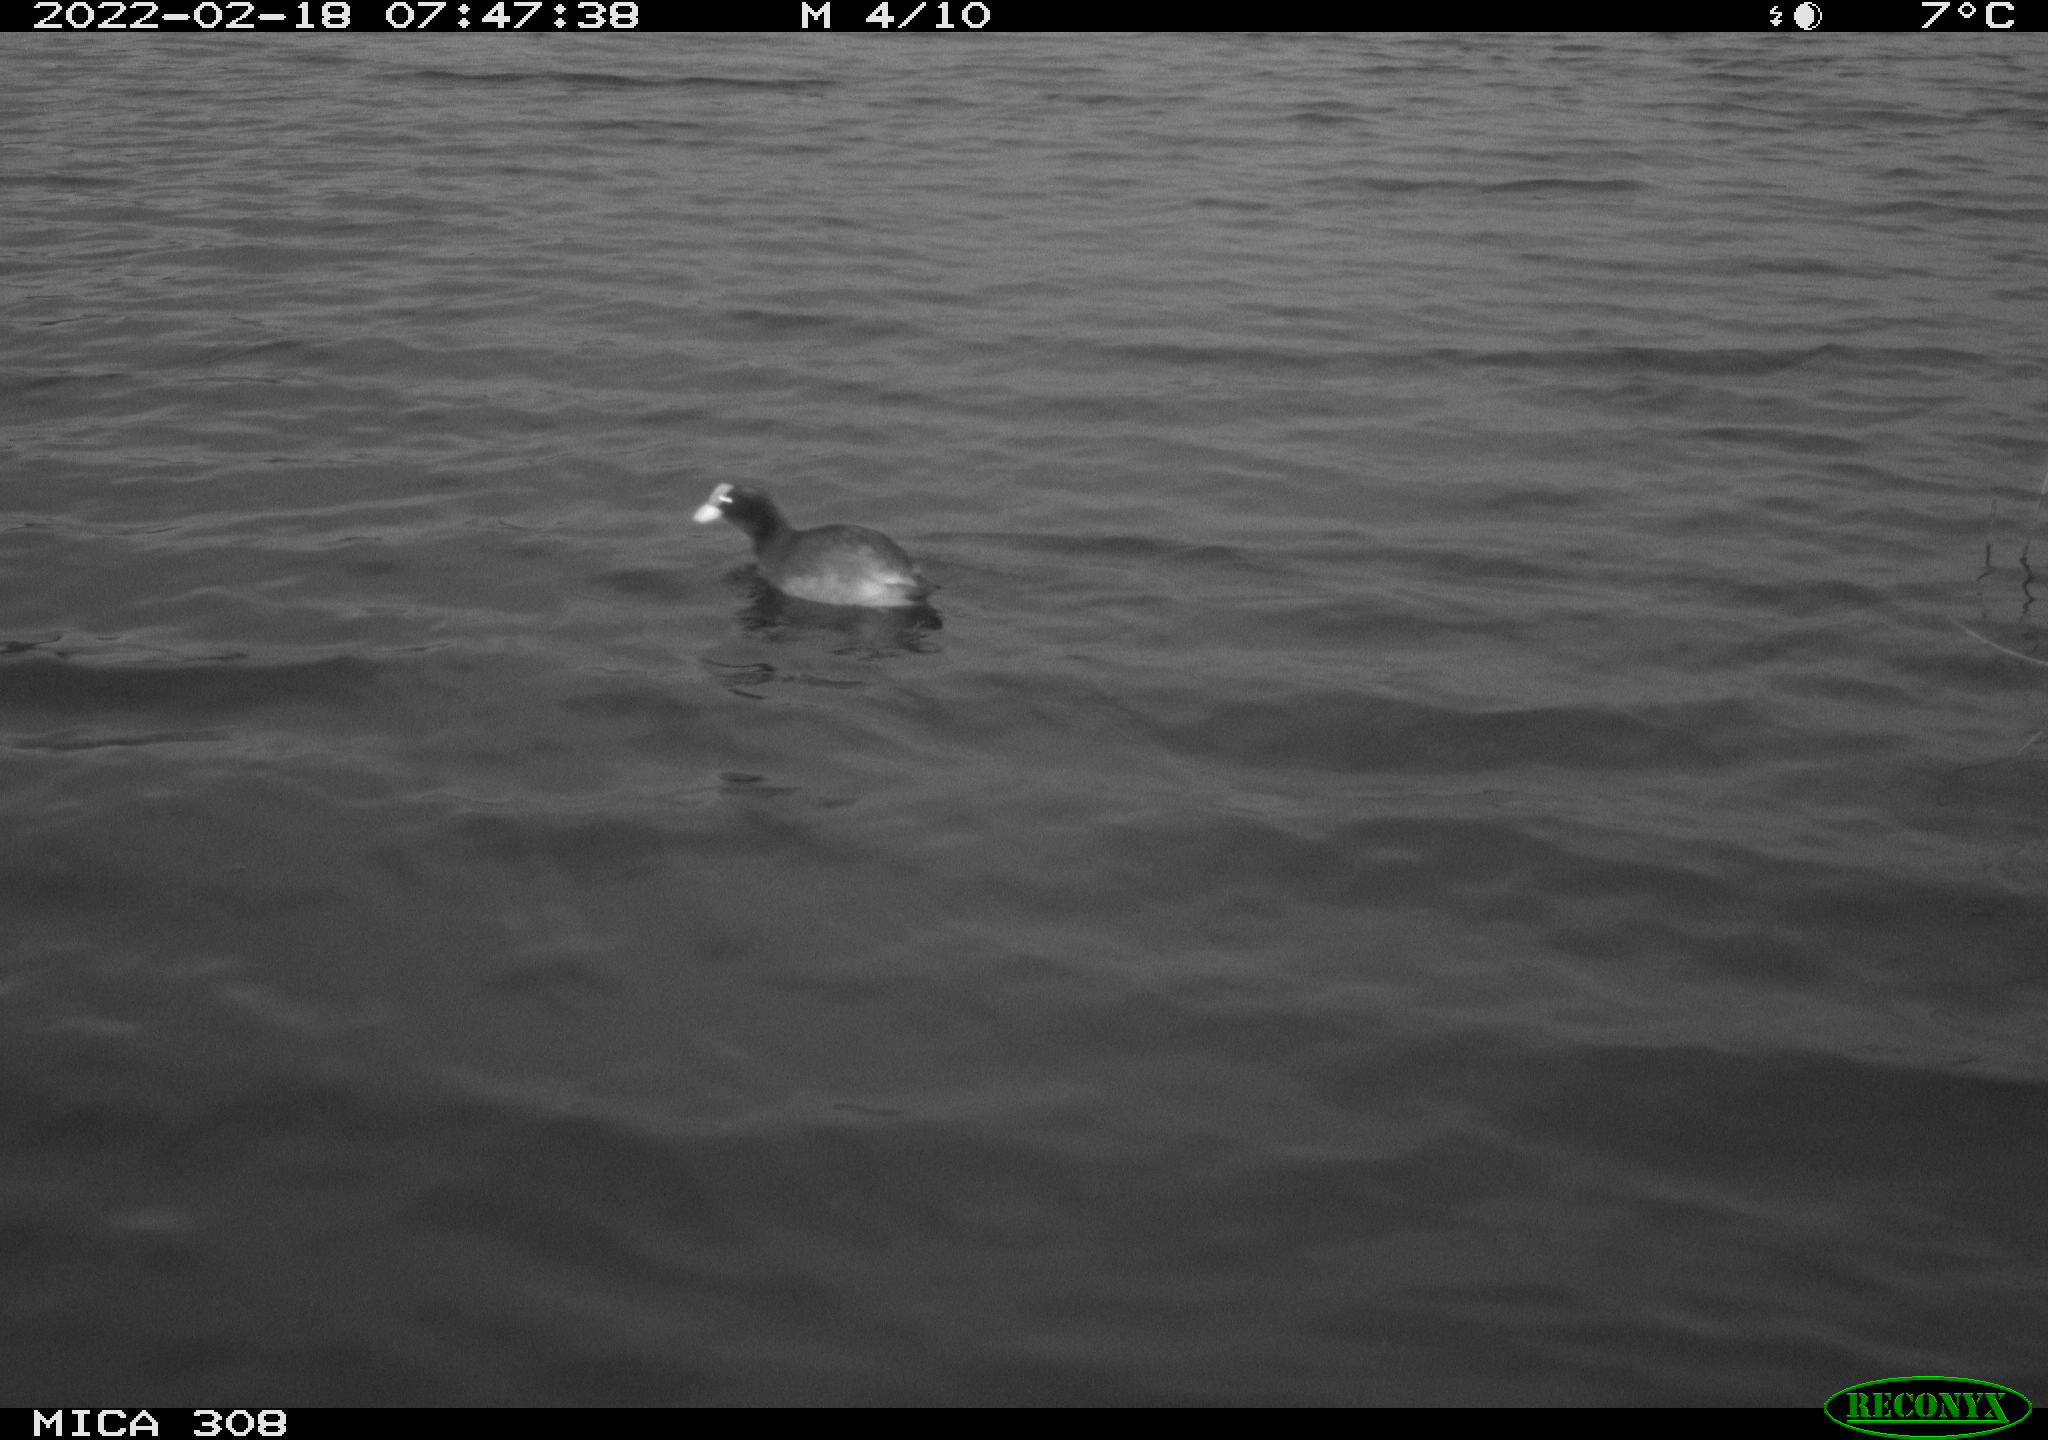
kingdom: Animalia
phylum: Chordata
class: Aves
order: Gruiformes
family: Rallidae
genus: Fulica
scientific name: Fulica atra
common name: Eurasian coot
